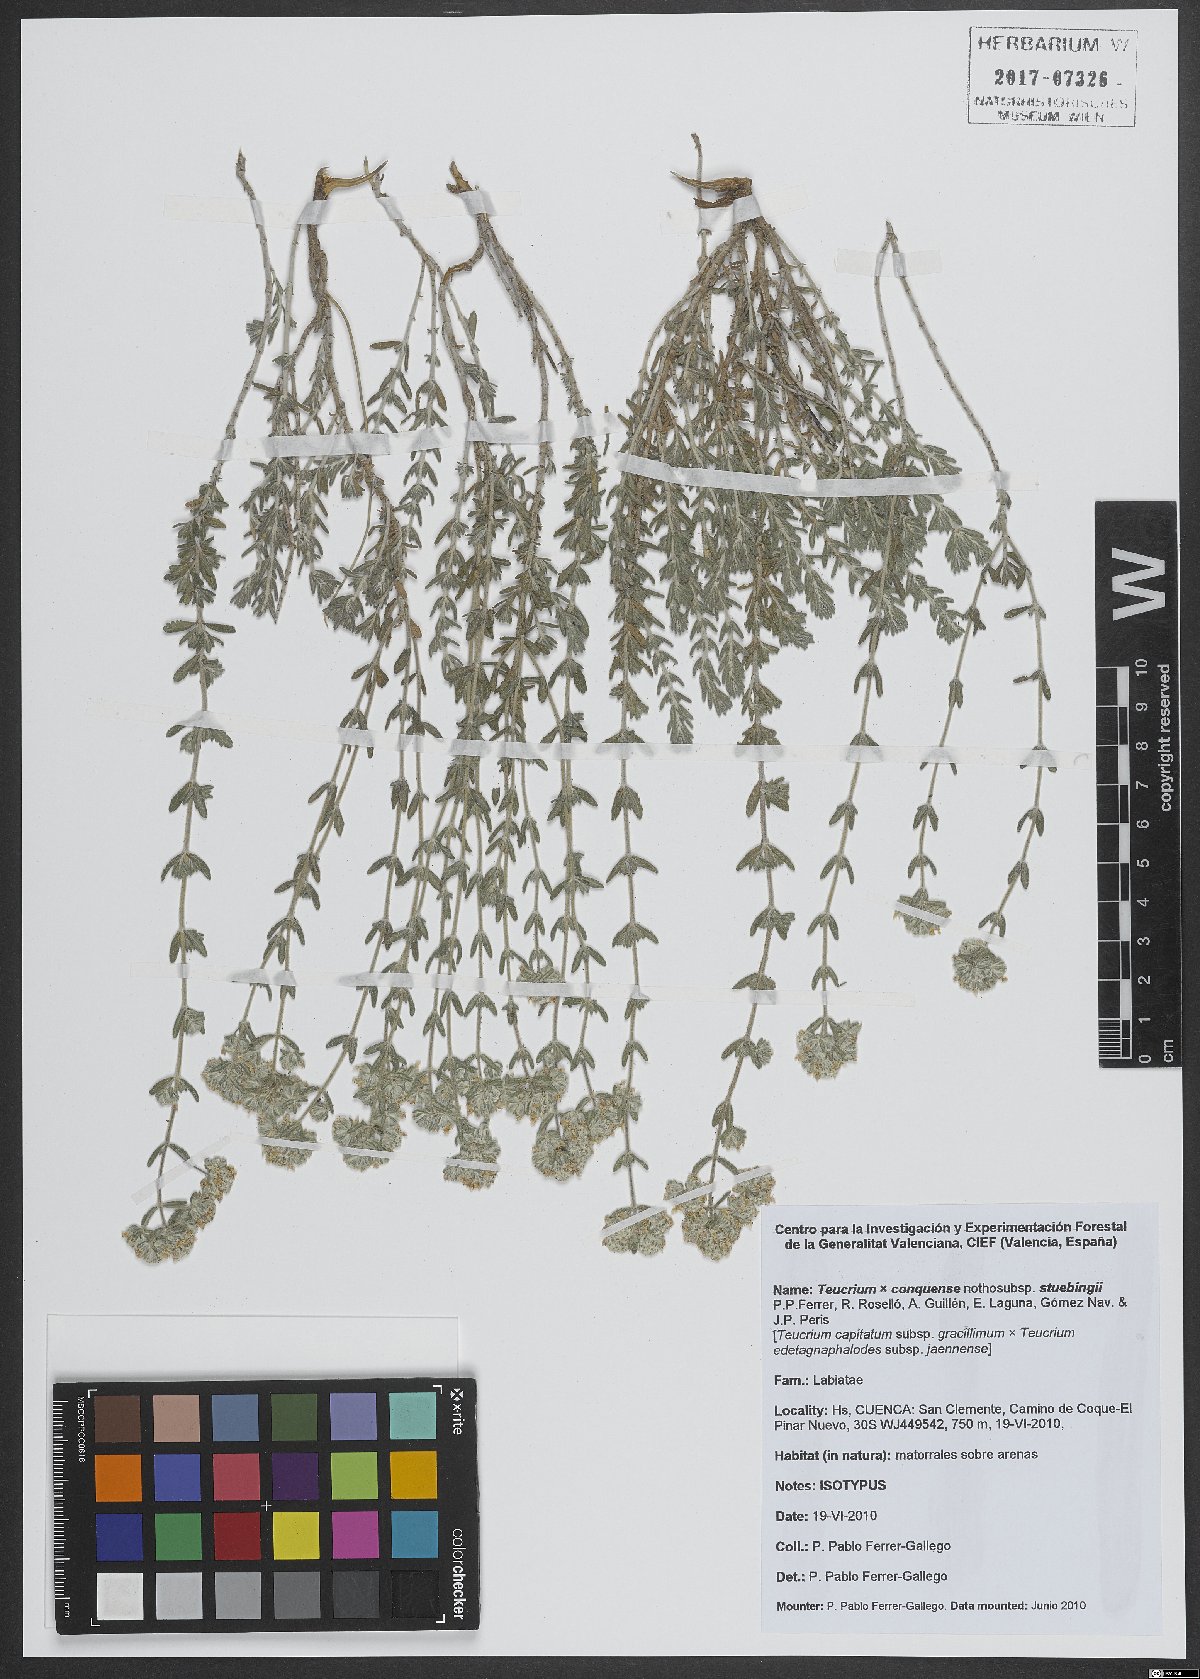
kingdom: Plantae
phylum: Tracheophyta
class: Magnoliopsida
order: Lamiales
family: Lamiaceae
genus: Teucrium
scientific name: Teucrium conquense
